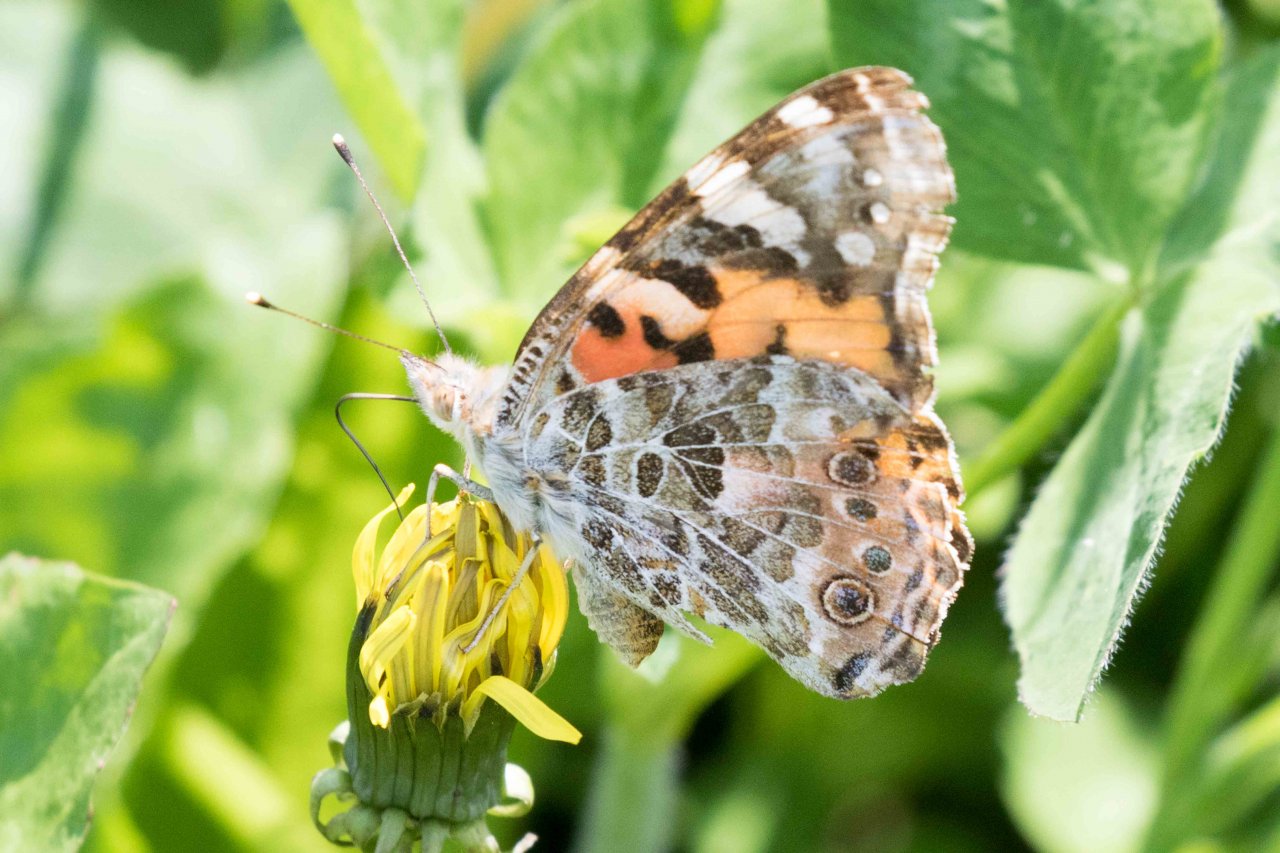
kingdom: Animalia
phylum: Arthropoda
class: Insecta
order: Lepidoptera
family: Nymphalidae
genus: Vanessa
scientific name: Vanessa cardui
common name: Painted Lady
